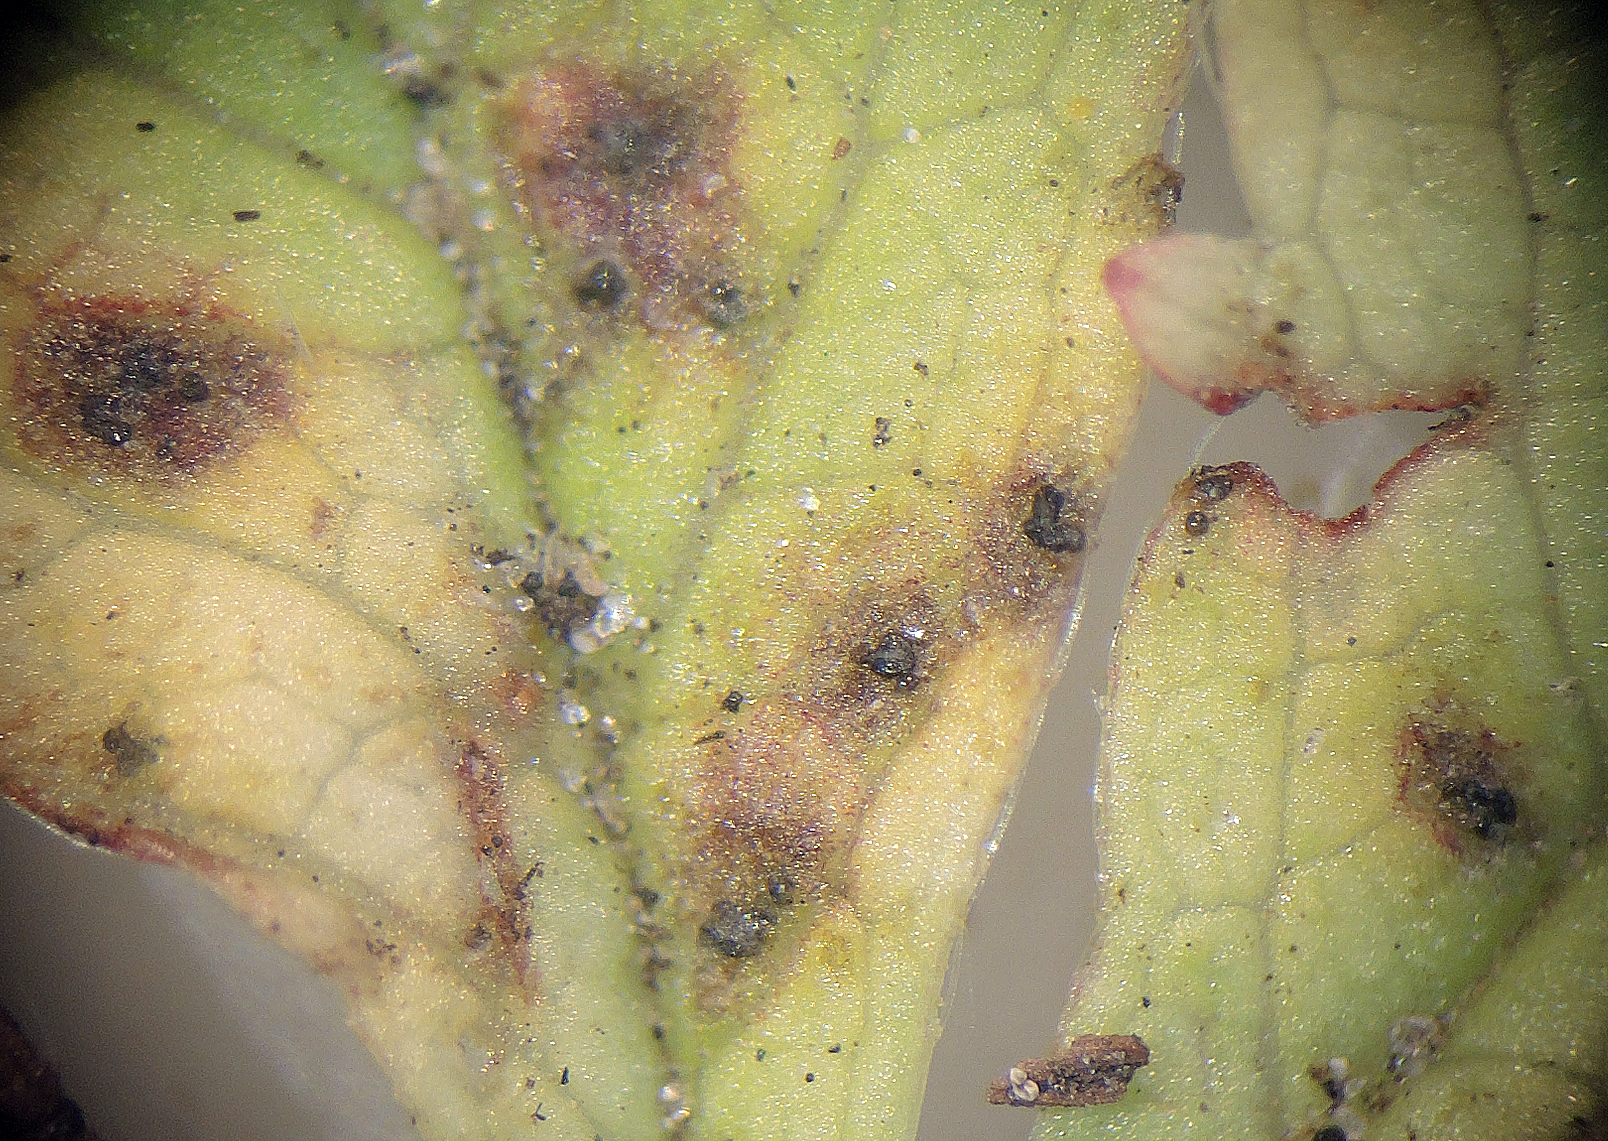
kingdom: Fungi
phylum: Ascomycota
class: Leotiomycetes
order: Helotiales
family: Drepanopezizaceae
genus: Diplocarpon
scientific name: Diplocarpon earlianum
